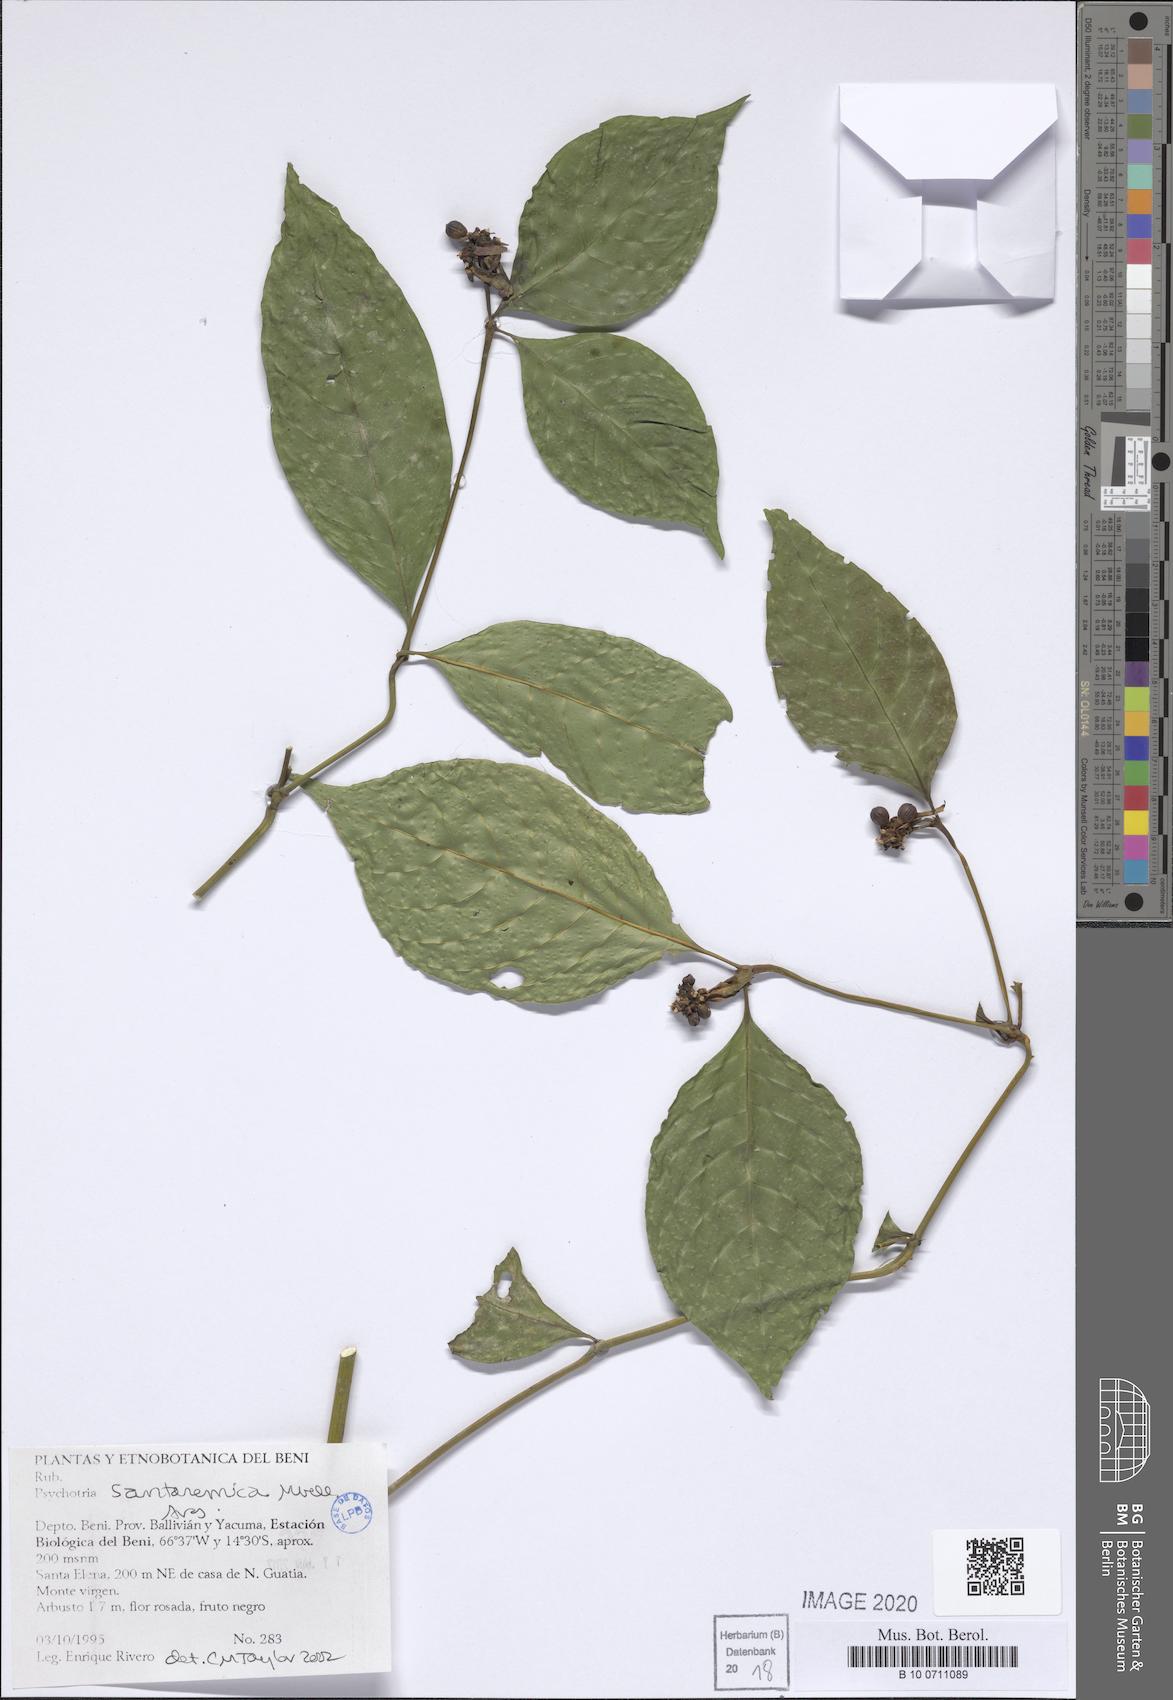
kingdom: Plantae
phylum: Tracheophyta
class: Magnoliopsida
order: Gentianales
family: Rubiaceae
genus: Psychotria
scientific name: Psychotria santaremica
